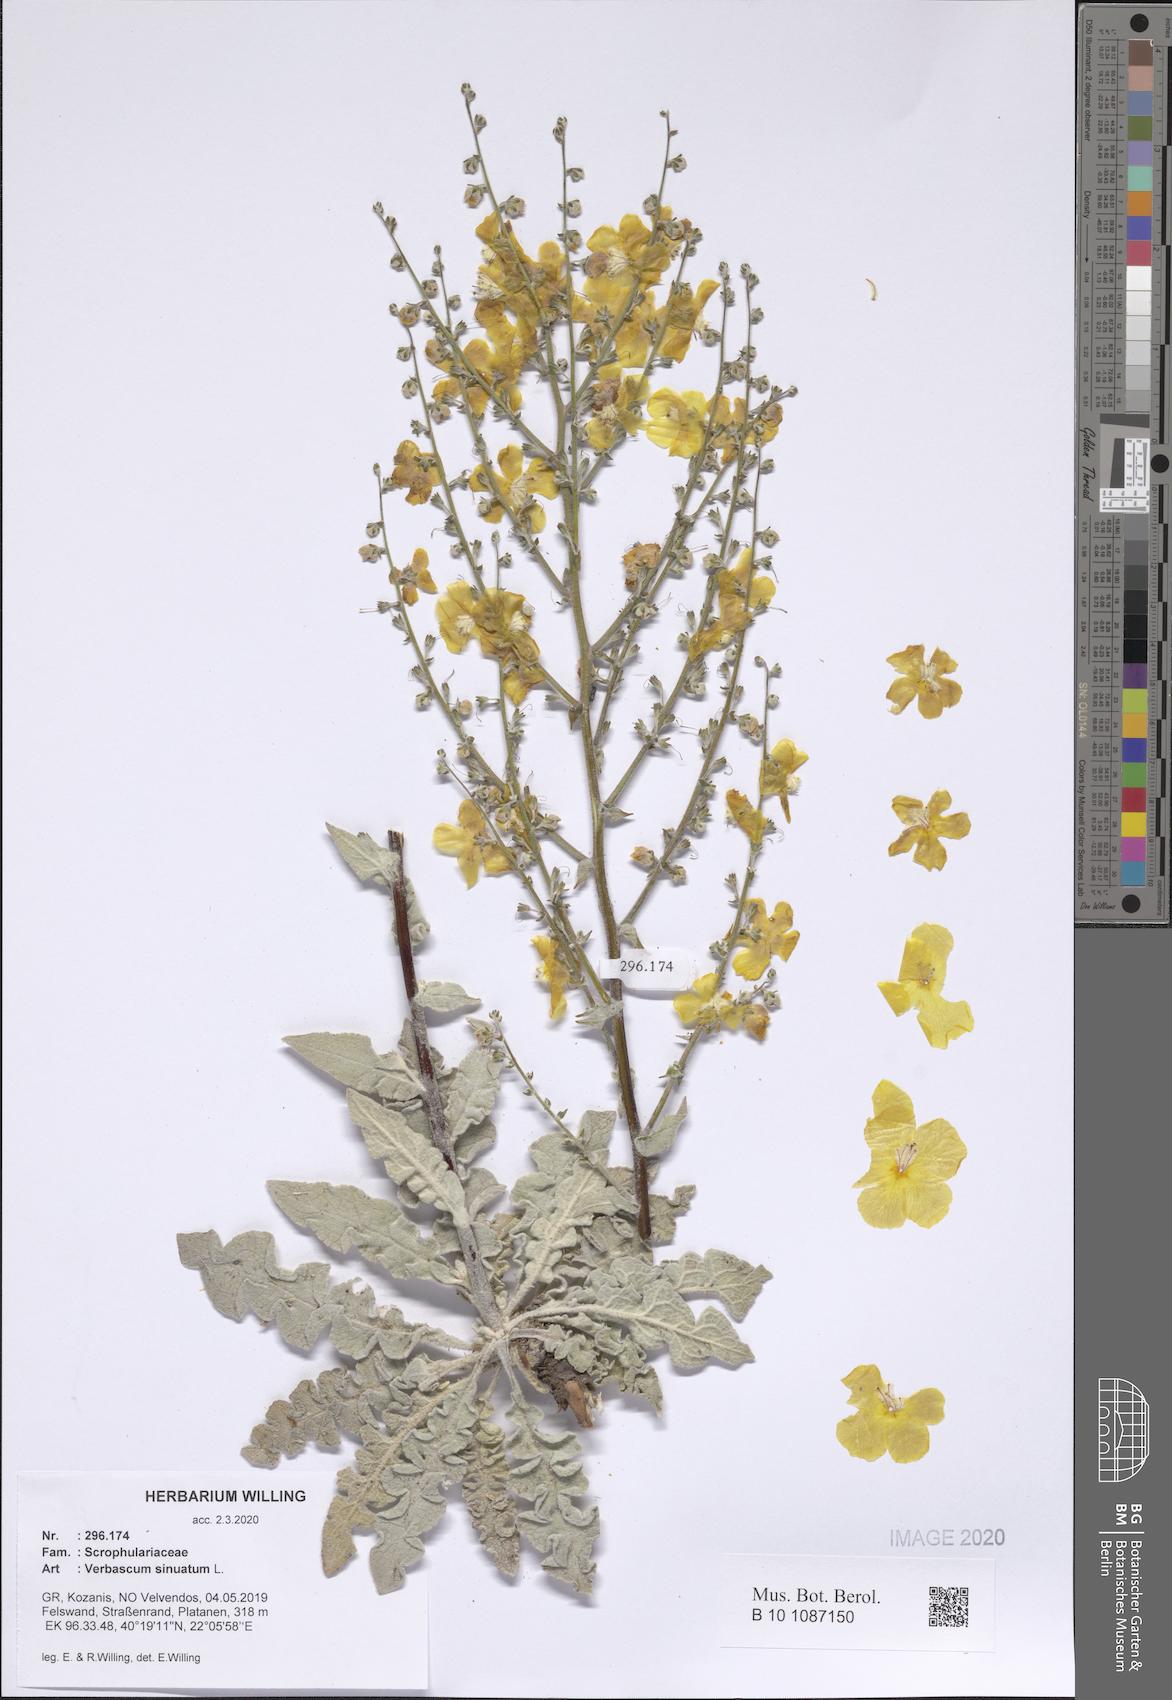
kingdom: Plantae
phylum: Tracheophyta
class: Magnoliopsida
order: Lamiales
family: Scrophulariaceae
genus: Verbascum
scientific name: Verbascum sinuatum
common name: Wavyleaf mullein
